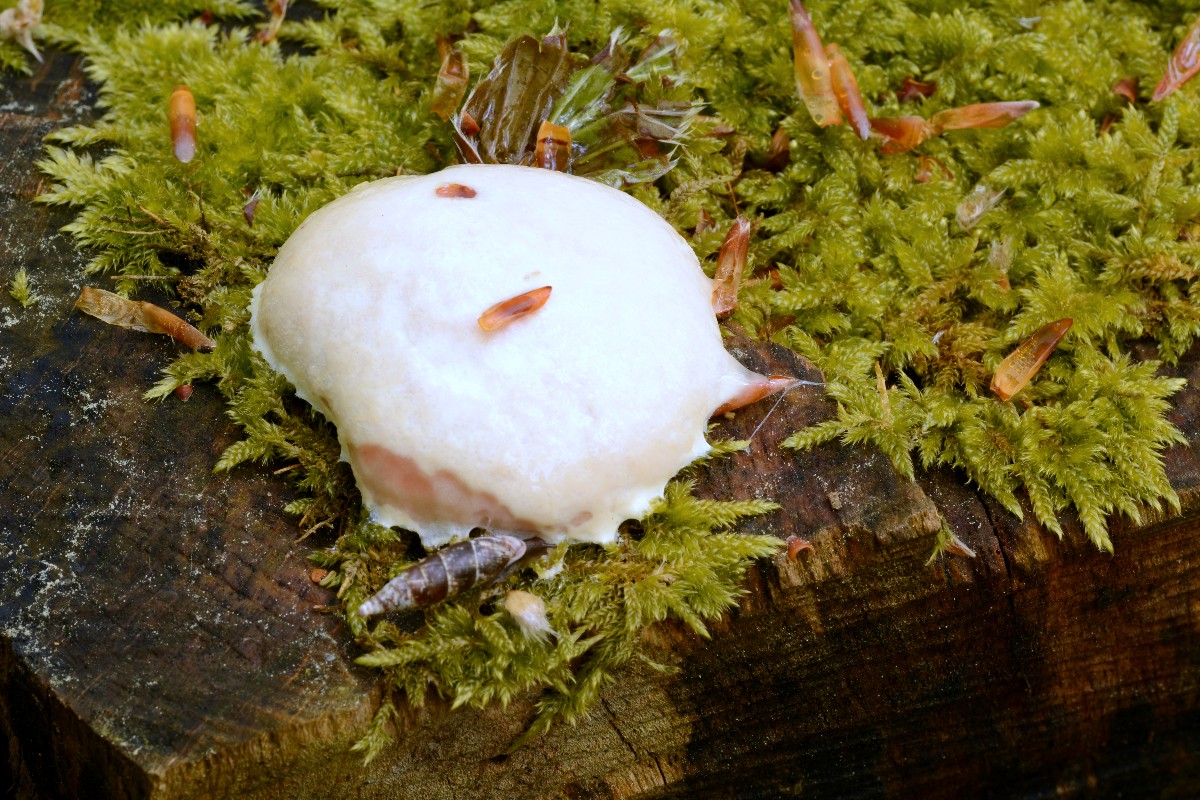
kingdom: Protozoa
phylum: Mycetozoa
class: Myxomycetes
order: Cribrariales
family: Tubiferaceae
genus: Reticularia
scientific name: Reticularia lycoperdon
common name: skinnende støvpude
